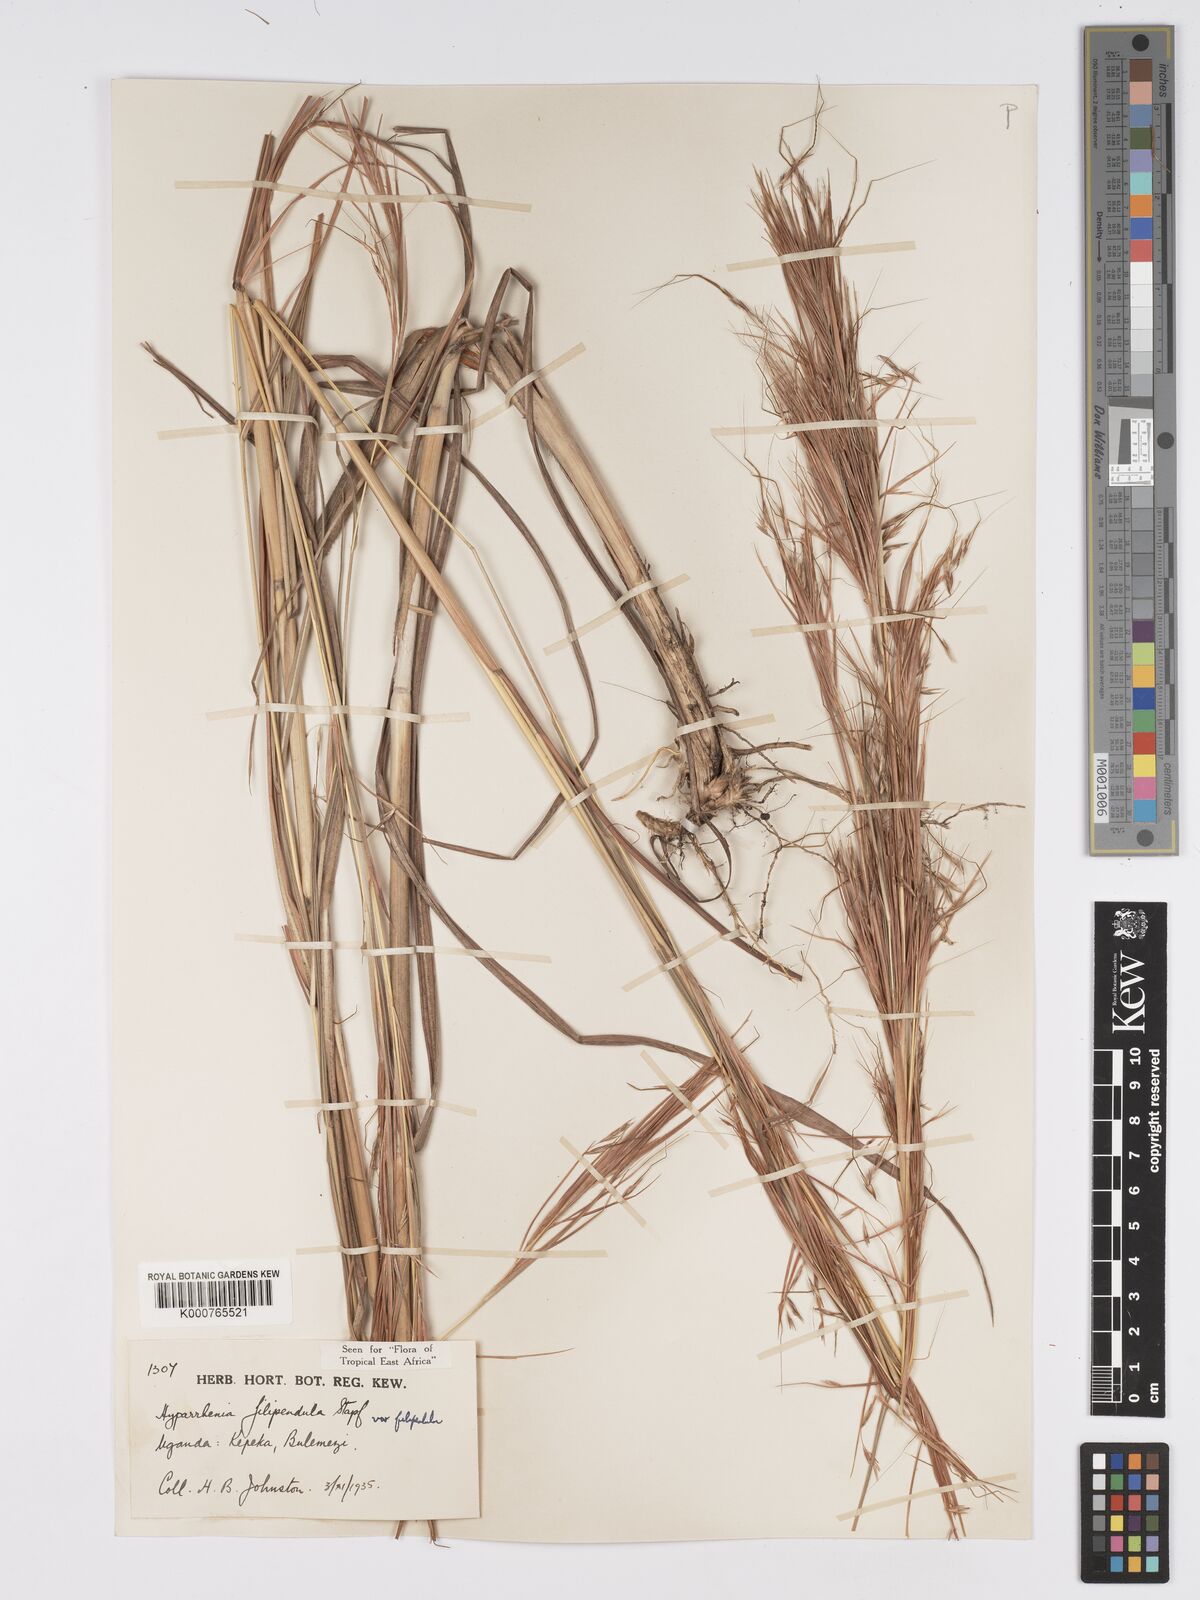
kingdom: Plantae
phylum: Tracheophyta
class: Liliopsida
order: Poales
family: Poaceae
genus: Hyparrhenia
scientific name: Hyparrhenia filipendula
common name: Tambookie grass
